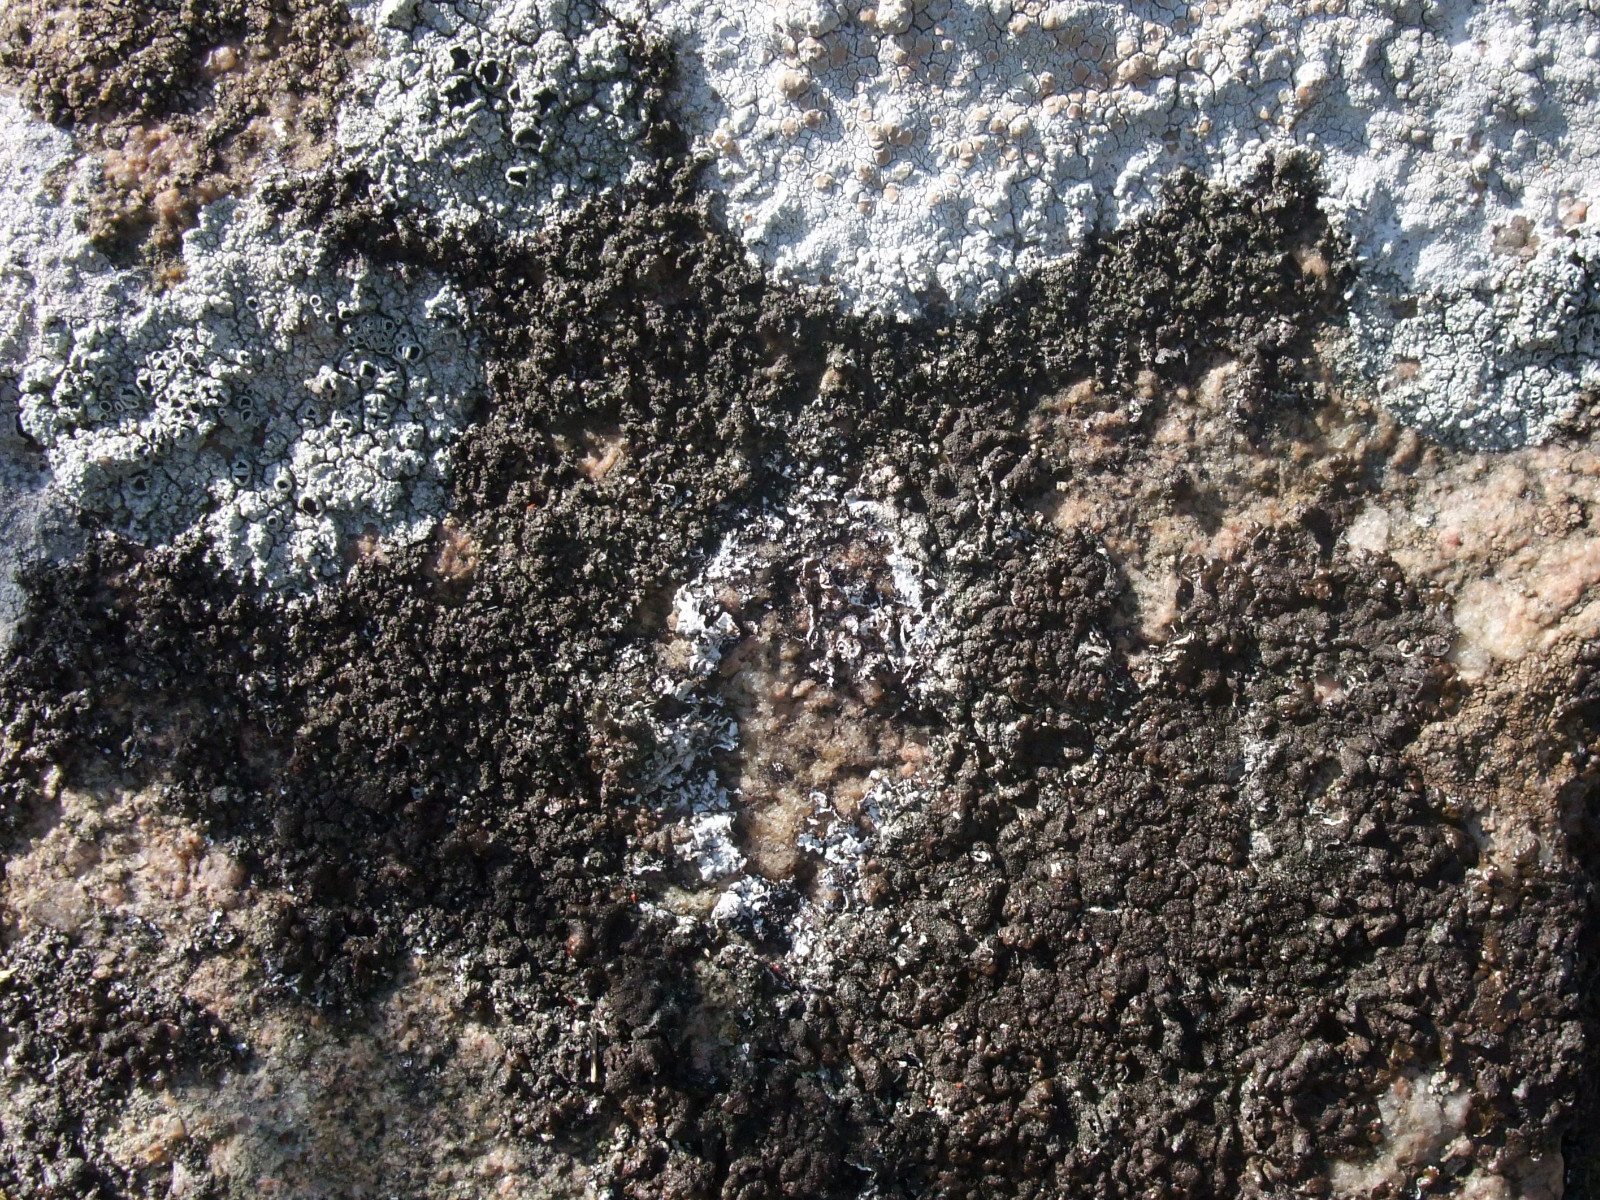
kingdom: Fungi
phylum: Ascomycota
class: Lecanoromycetes
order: Lecanorales
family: Parmeliaceae
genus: Melanelixia
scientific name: Melanelixia fuliginosa
